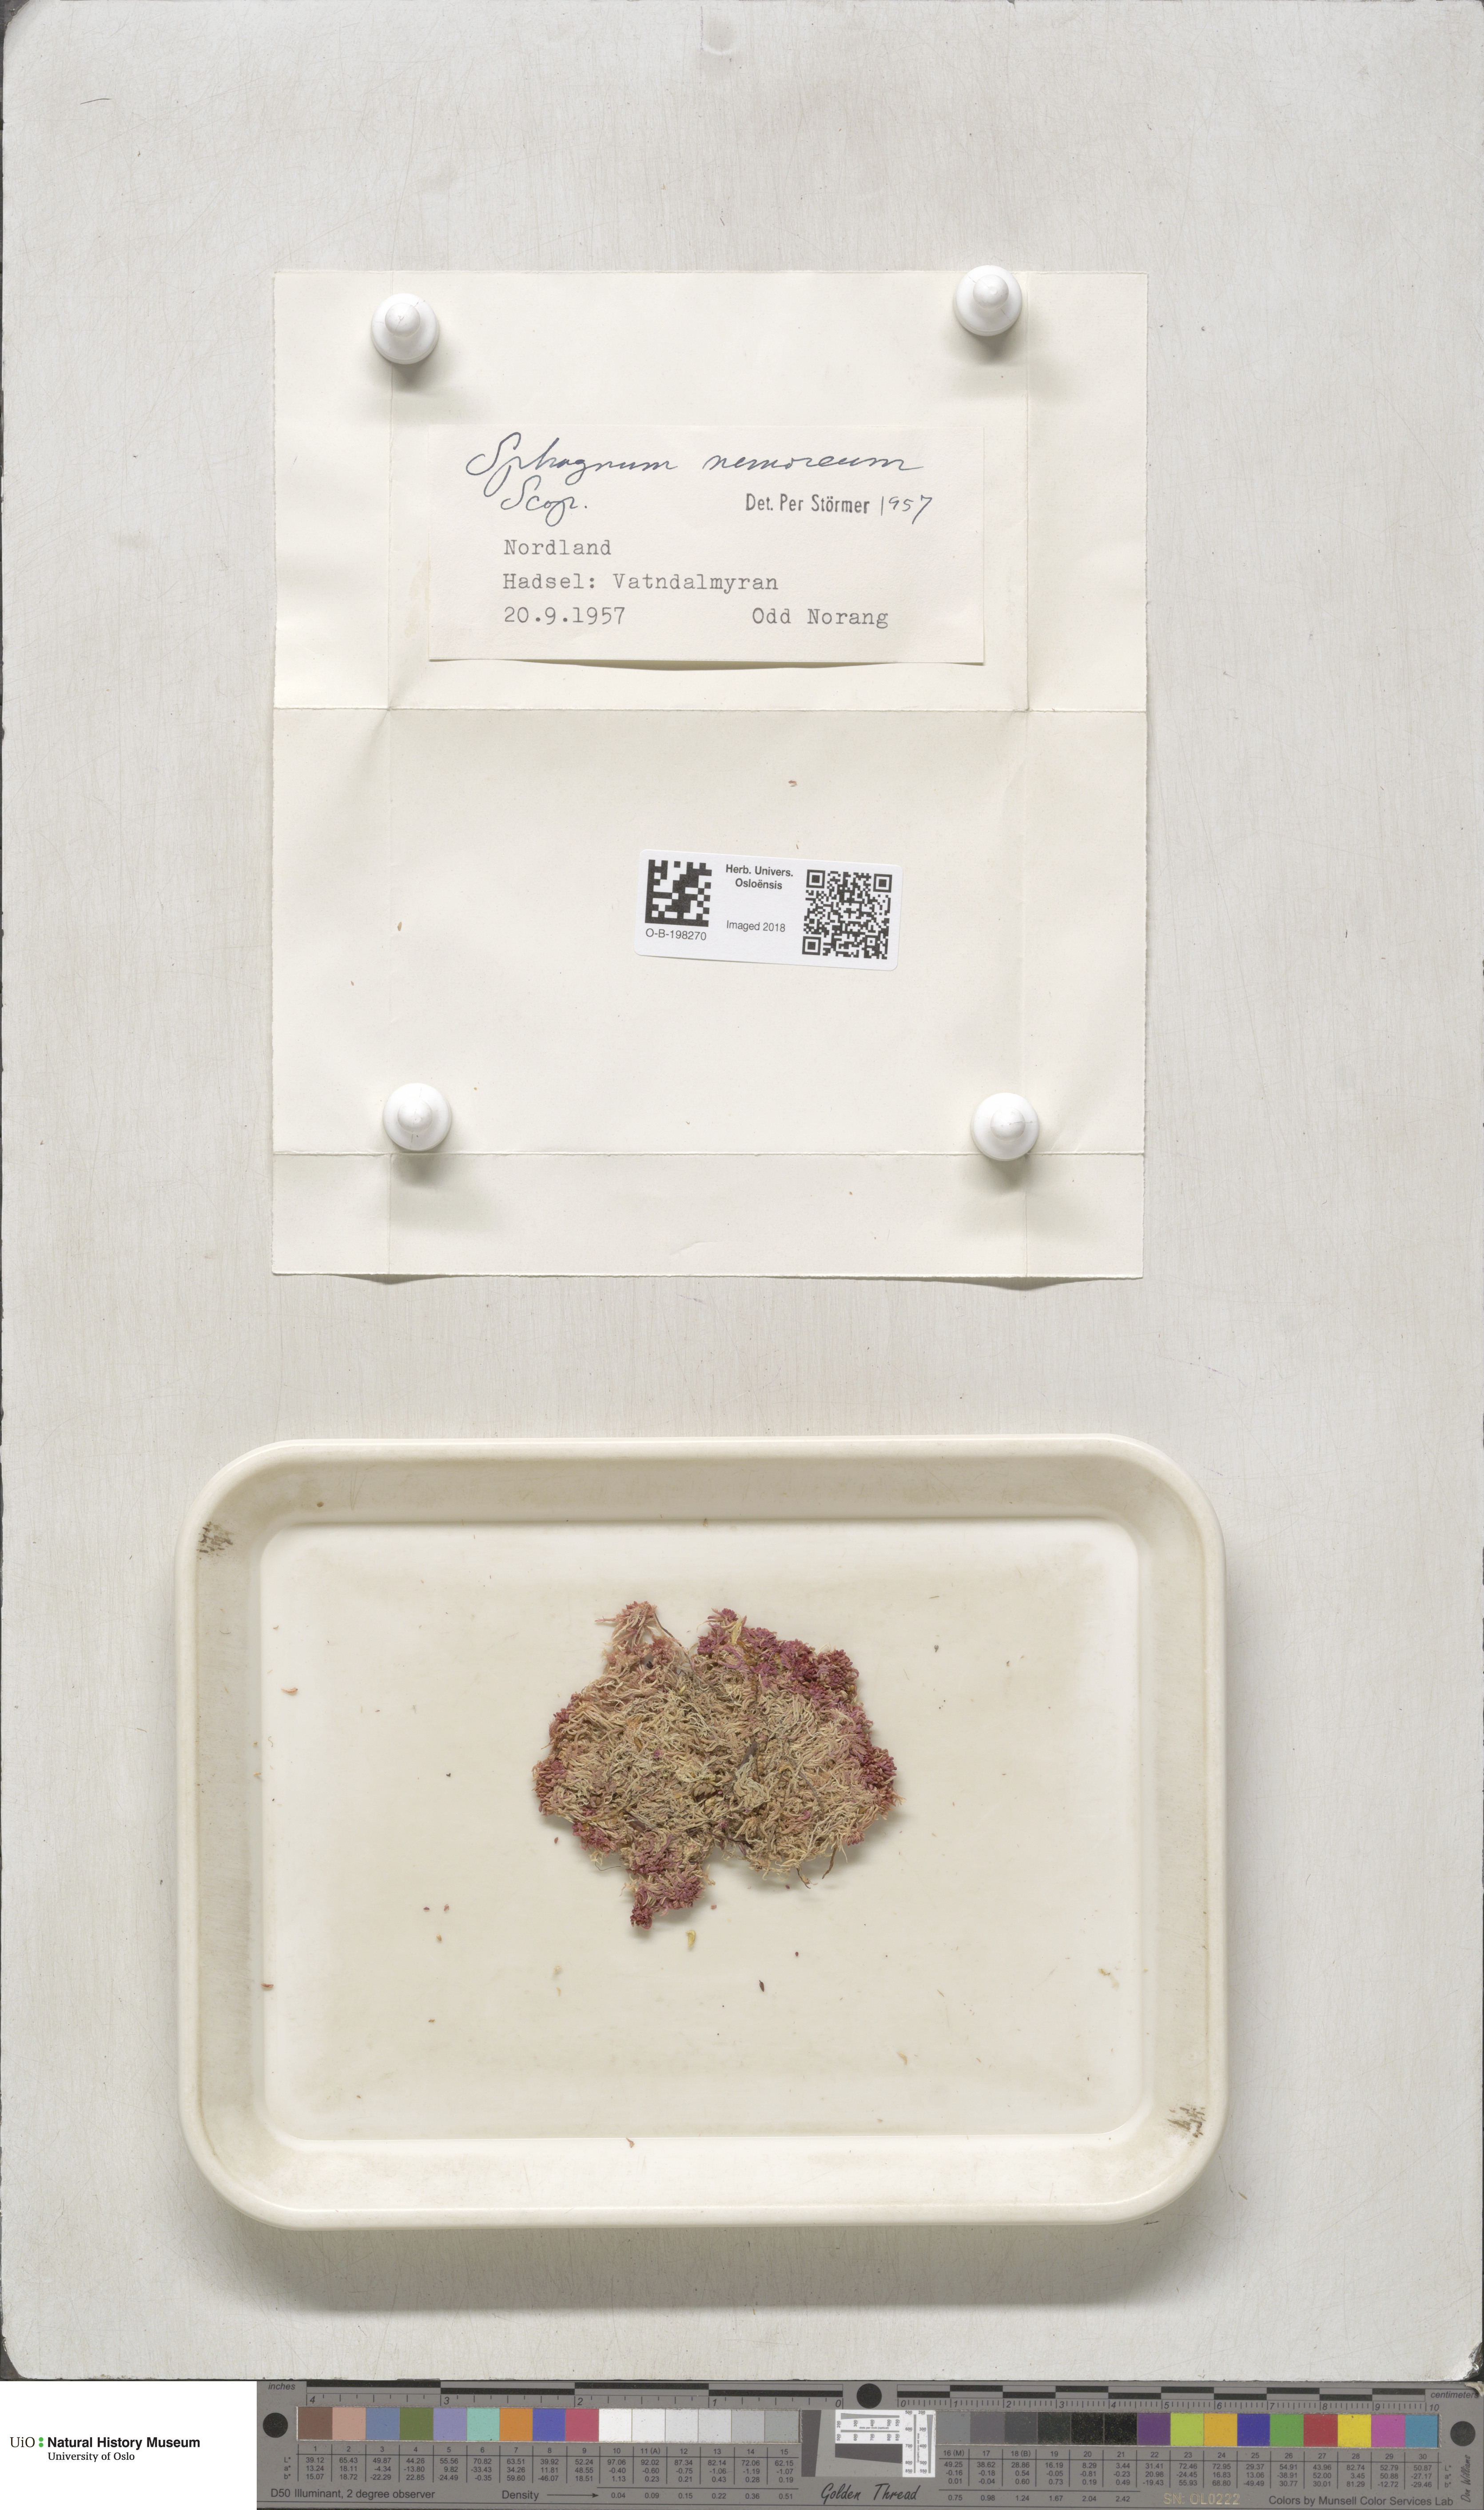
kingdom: Plantae
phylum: Bryophyta
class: Sphagnopsida
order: Sphagnales
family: Sphagnaceae
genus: Sphagnum
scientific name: Sphagnum capillifolium
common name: Small red peat moss
